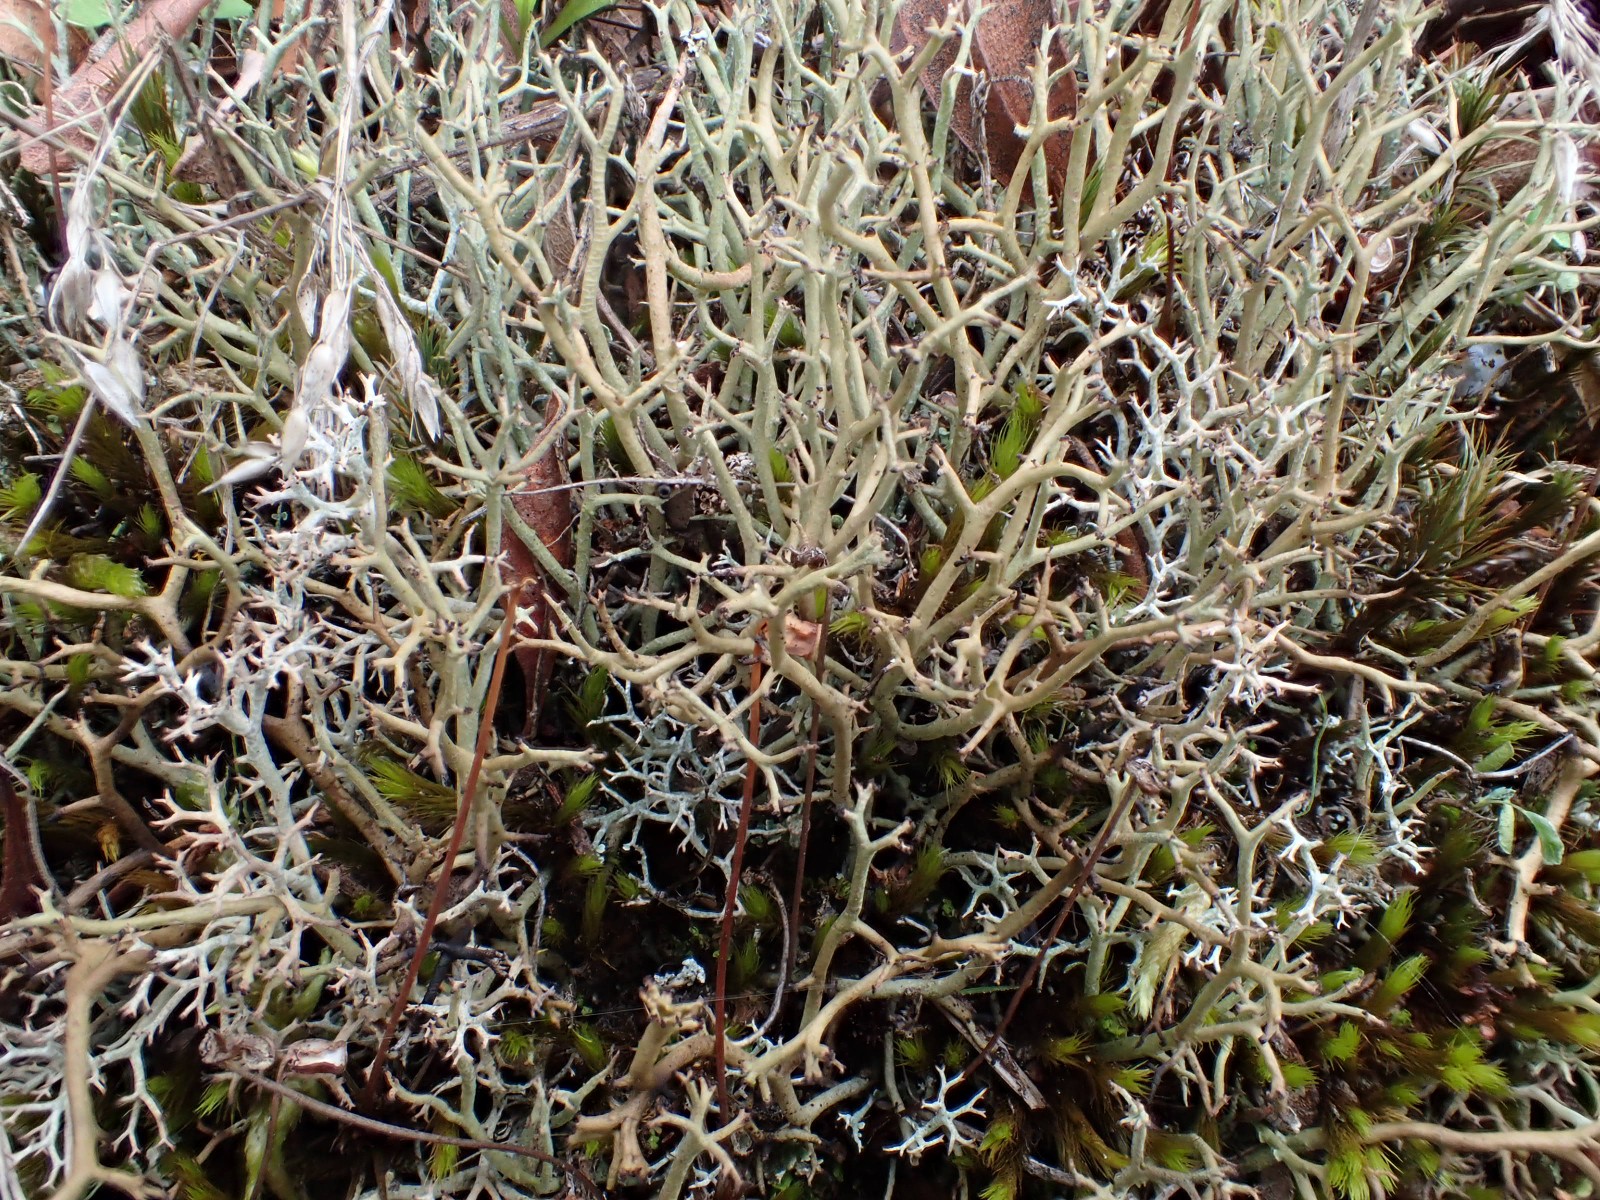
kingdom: Fungi
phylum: Ascomycota
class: Lecanoromycetes
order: Lecanorales
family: Cladoniaceae
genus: Cladonia
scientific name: Cladonia furcata
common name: kløftet bægerlav
